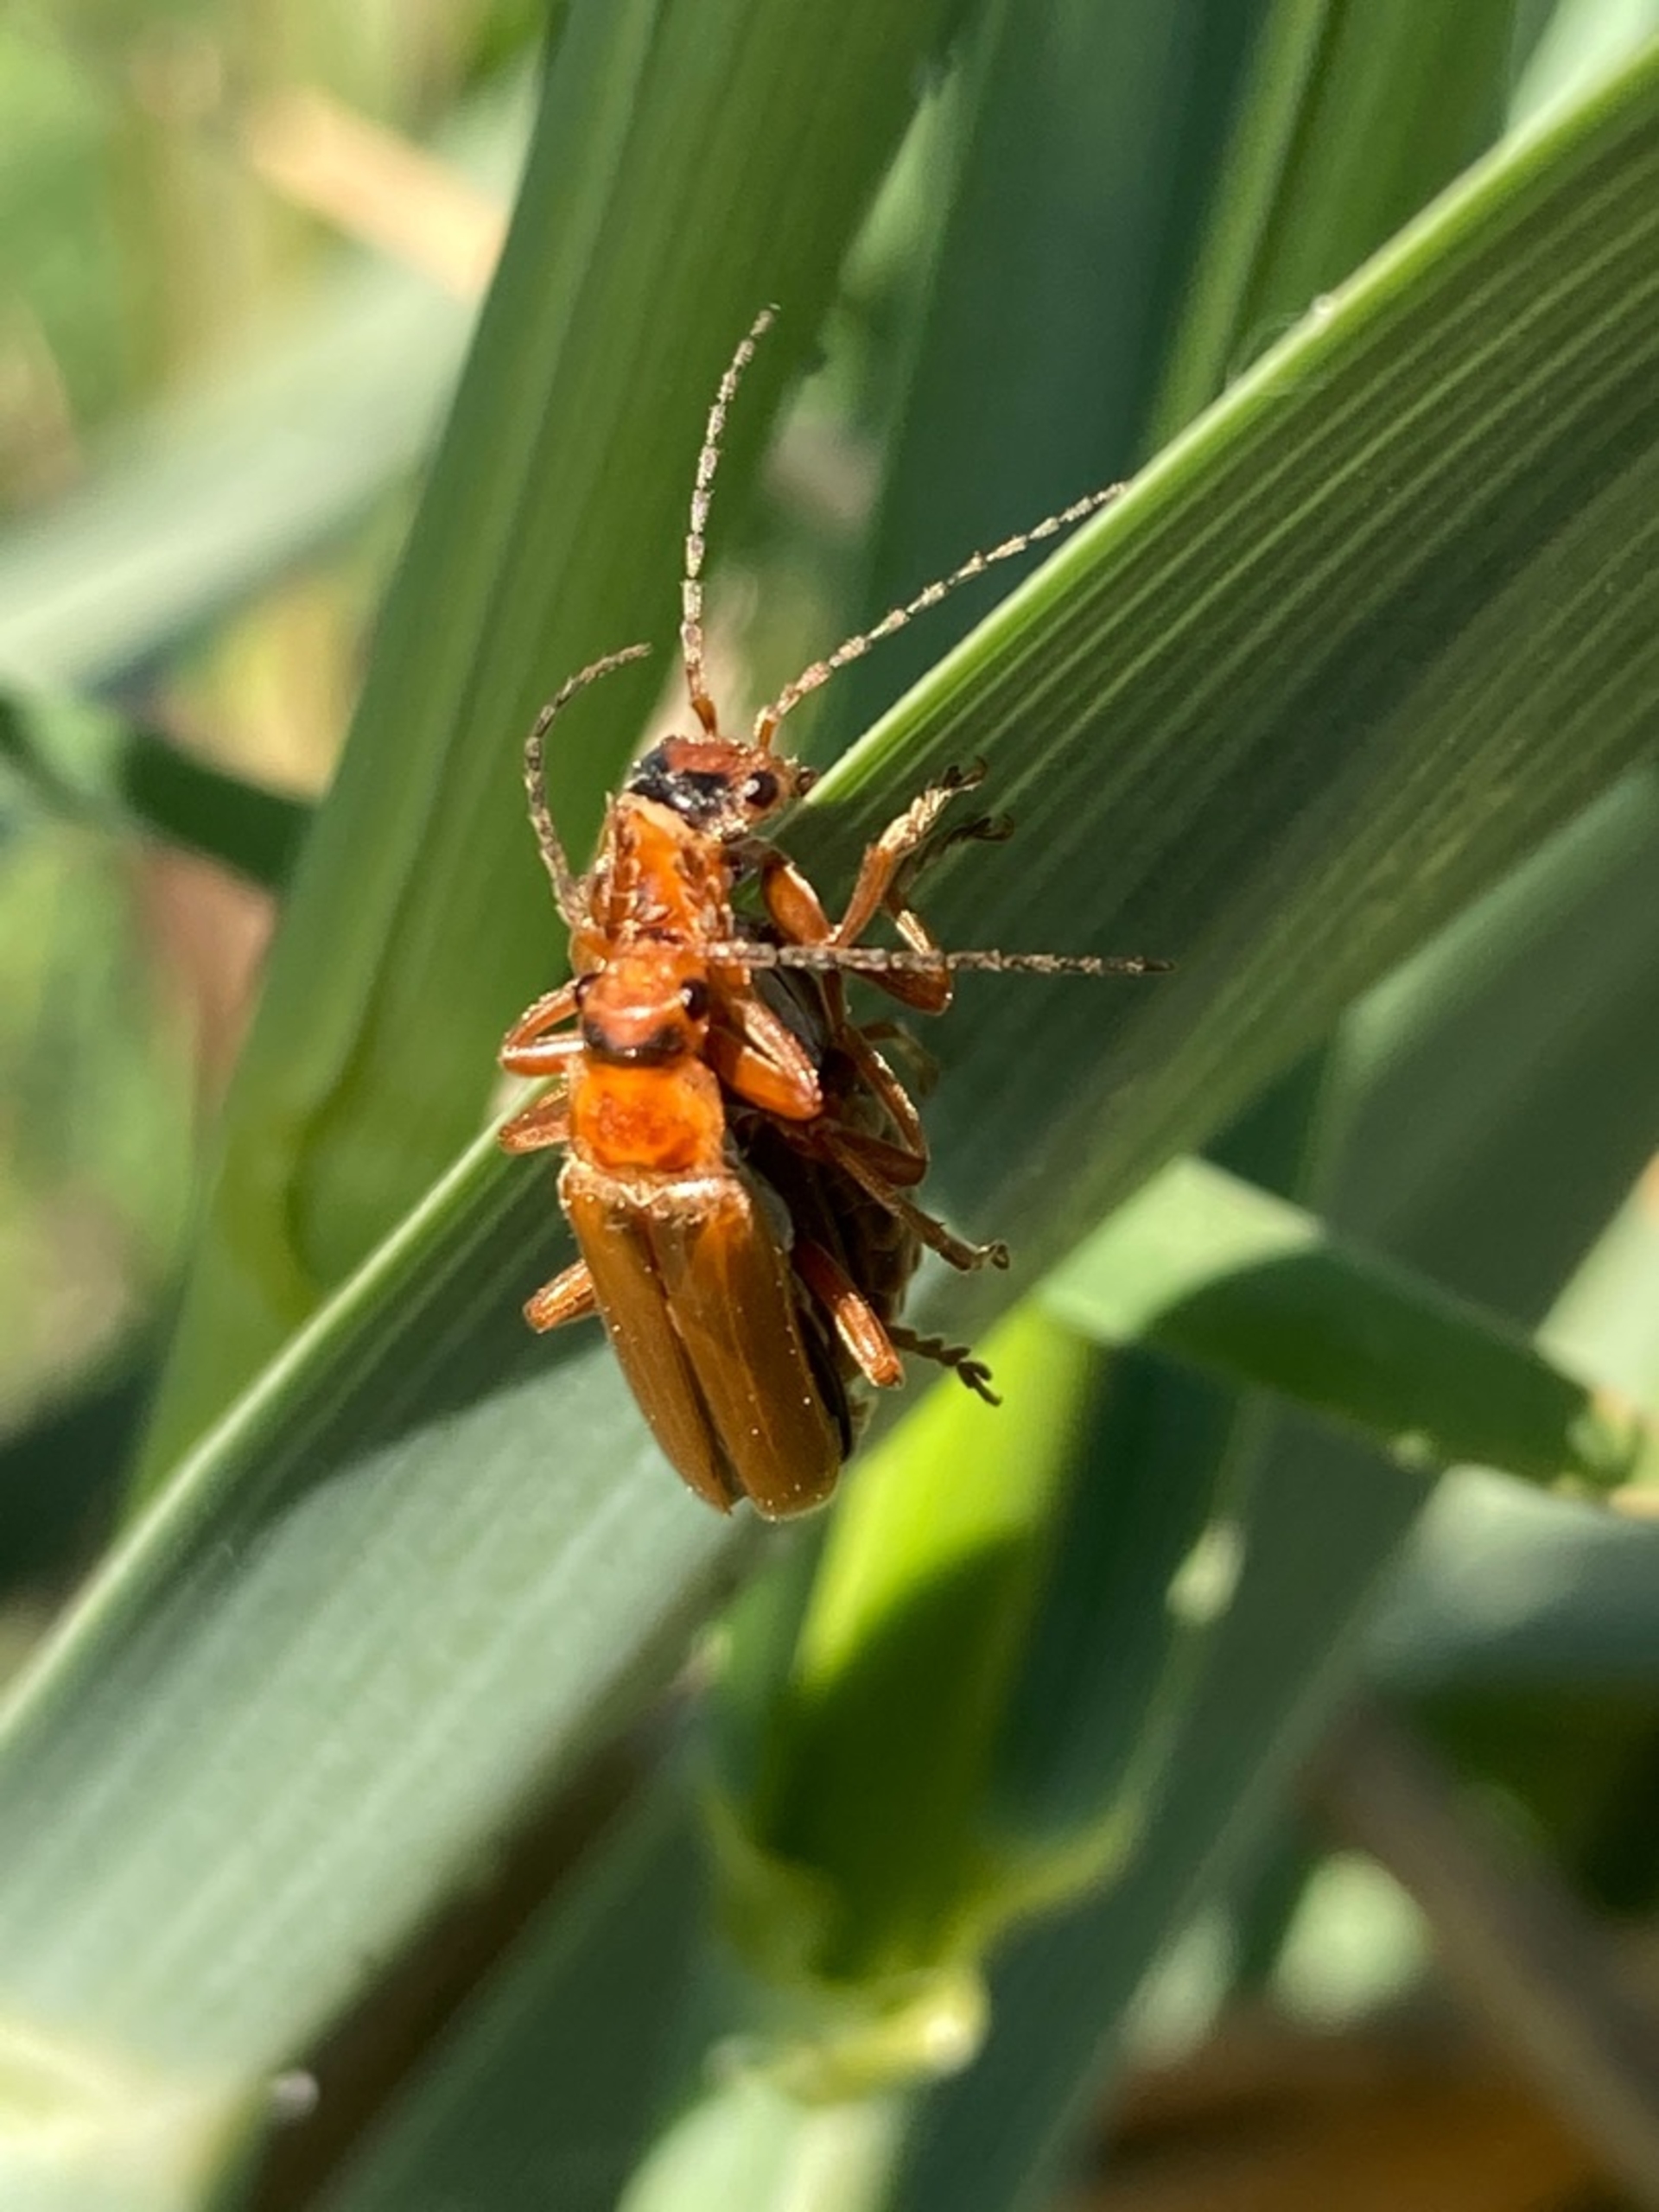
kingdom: Animalia
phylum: Arthropoda
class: Insecta
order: Coleoptera
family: Cantharidae
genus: Cantharis
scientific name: Cantharis rufa
